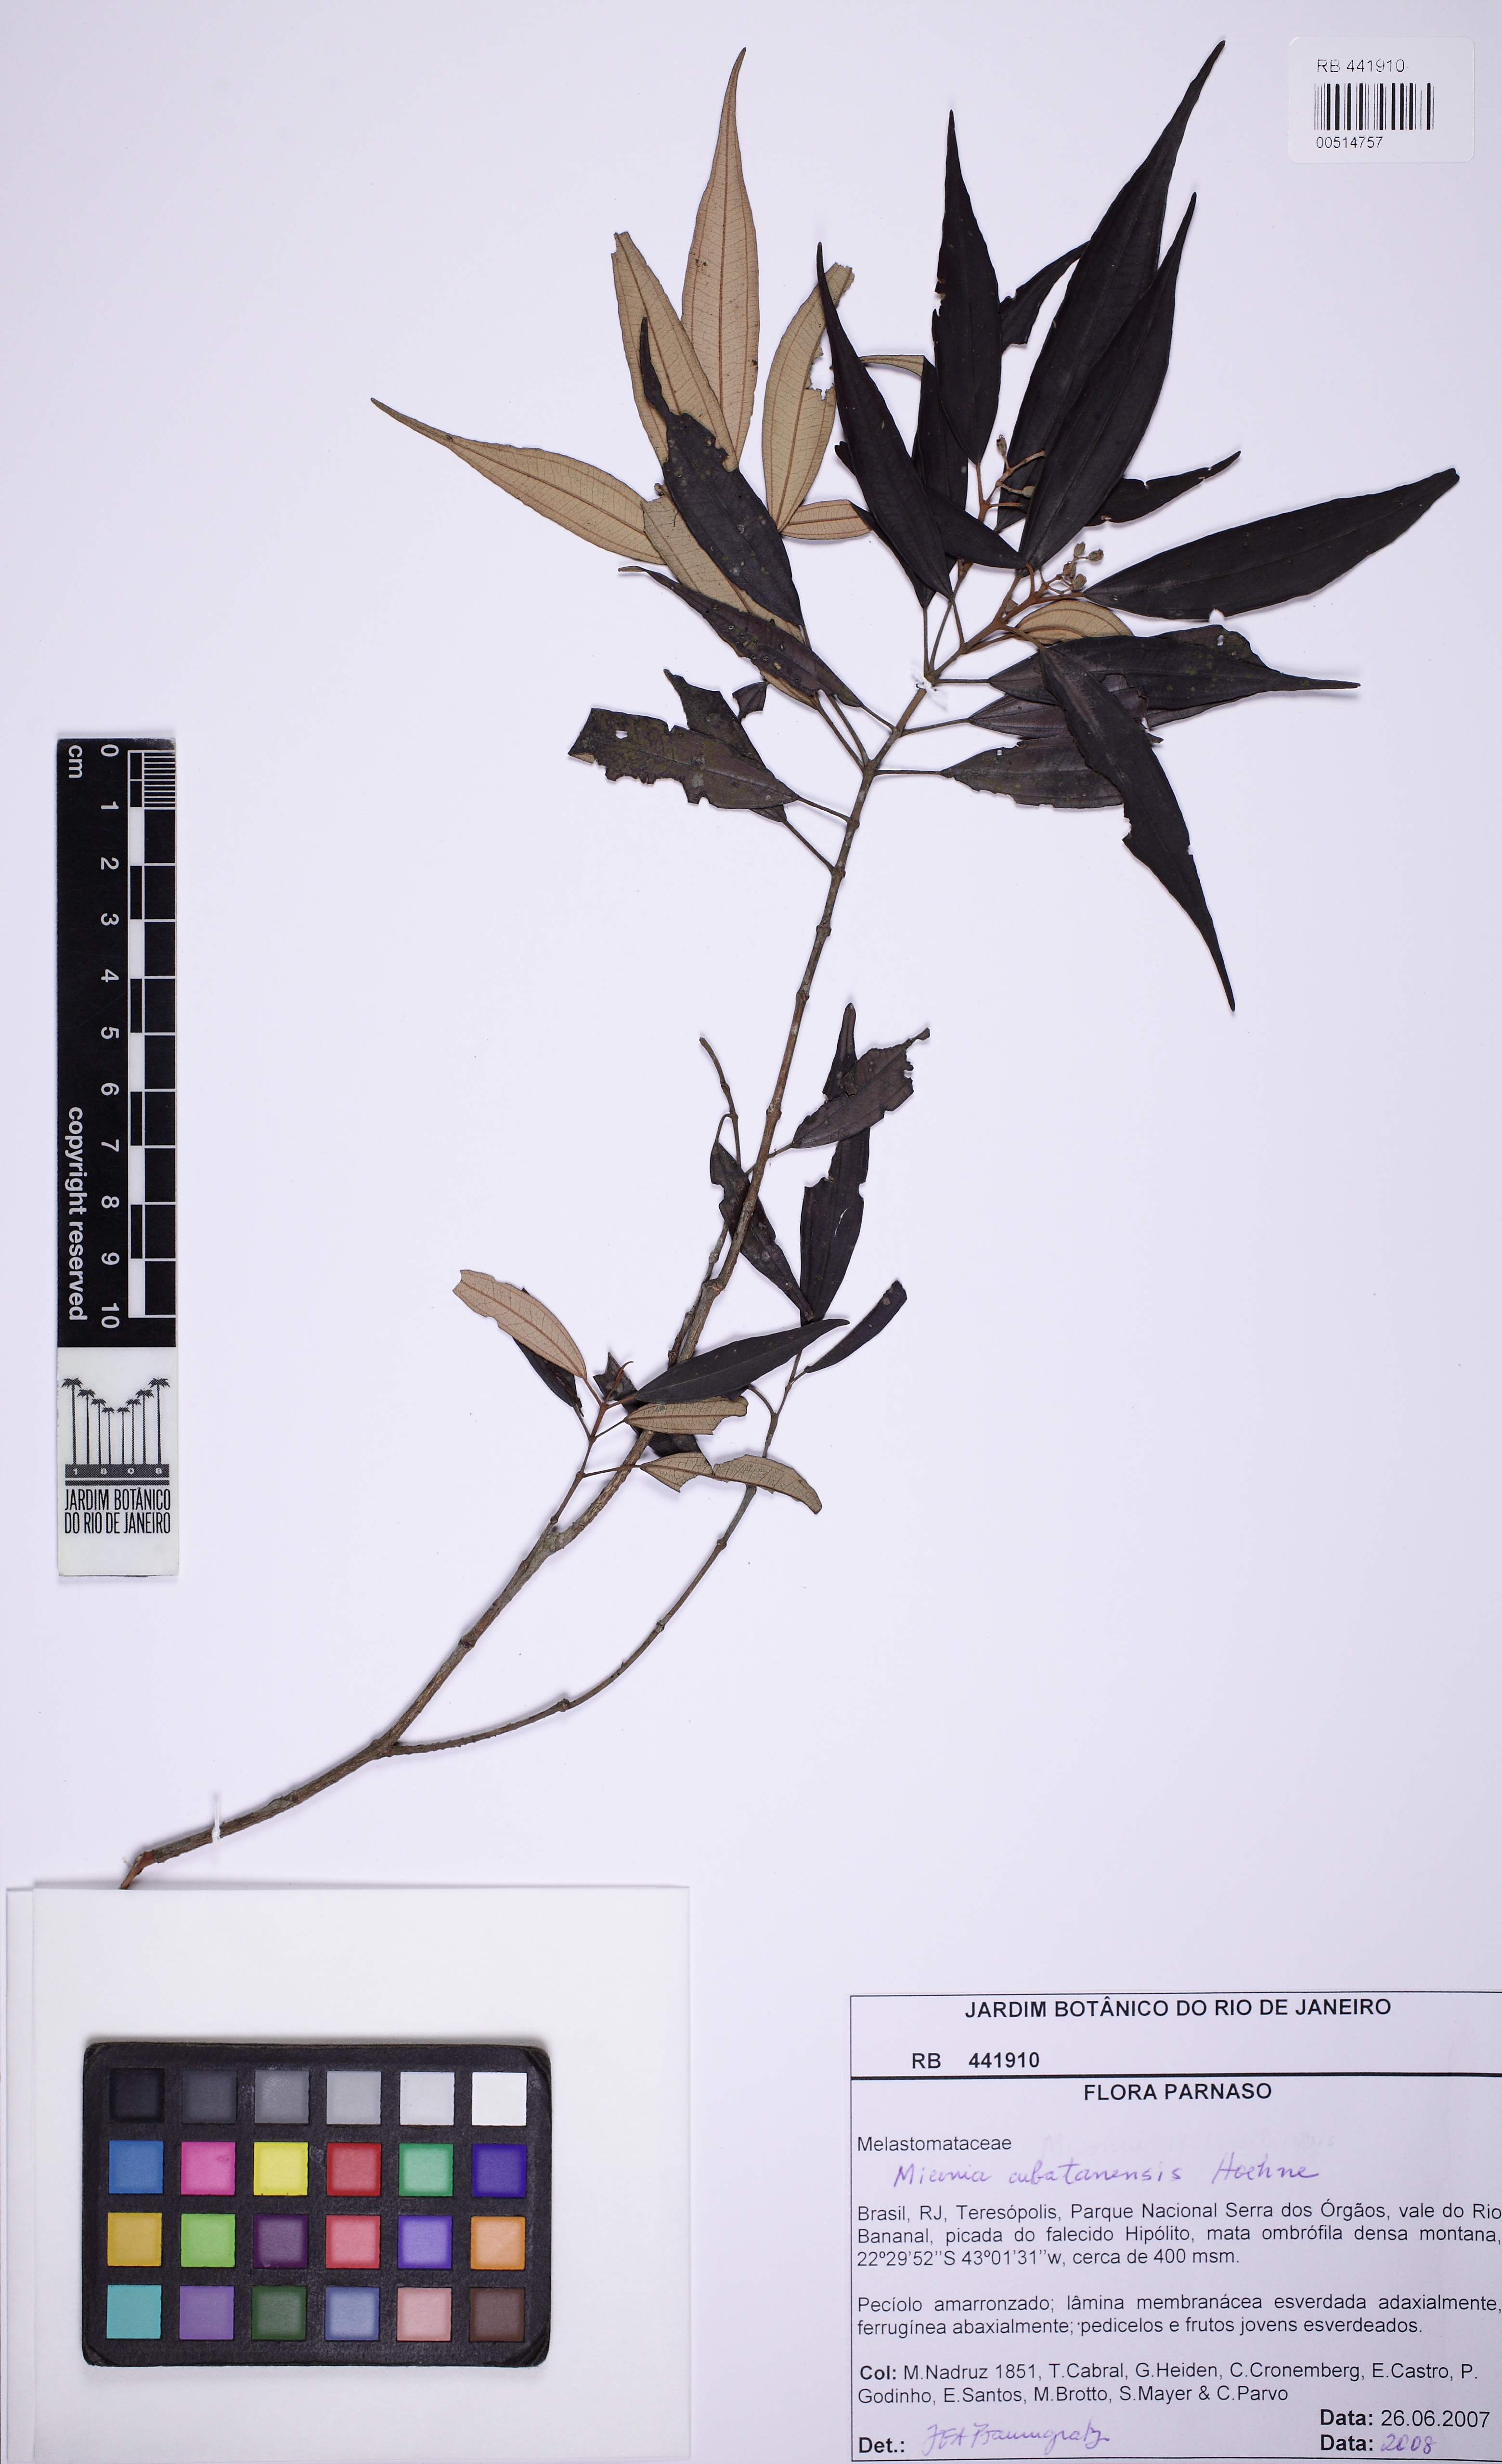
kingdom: Plantae
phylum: Tracheophyta
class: Magnoliopsida
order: Myrtales
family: Melastomataceae
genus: Miconia
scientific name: Miconia cubatanensis
